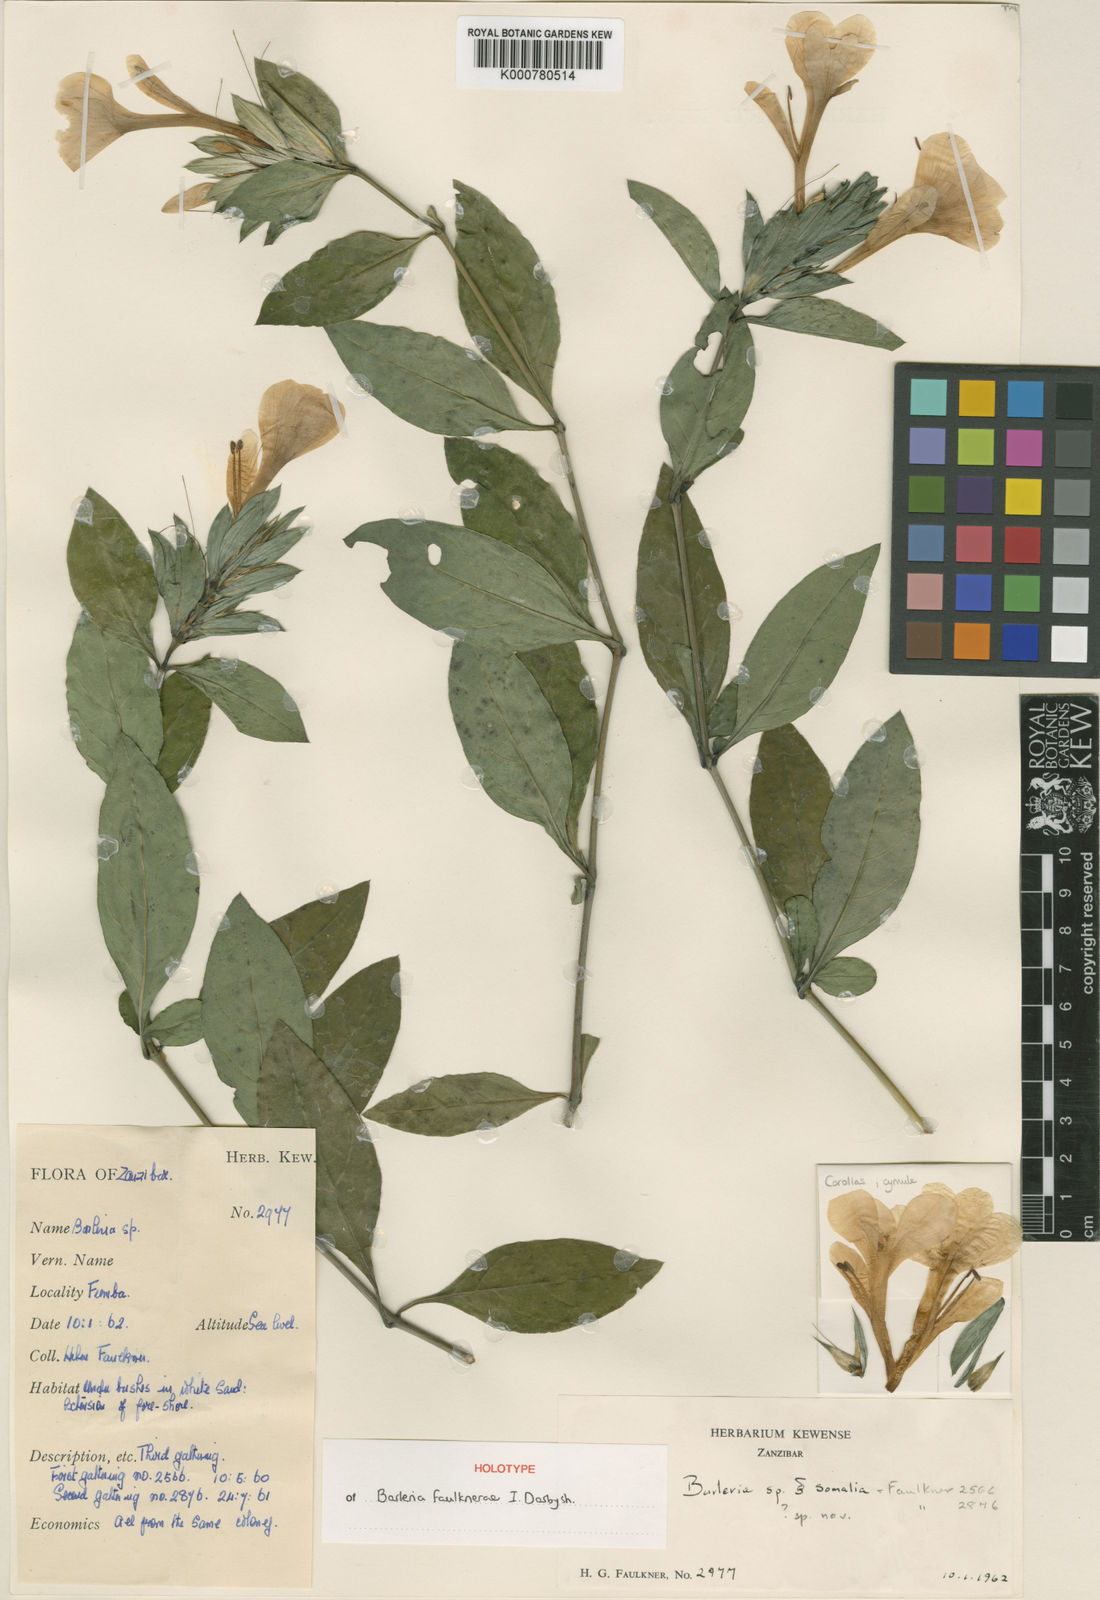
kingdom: Plantae
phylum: Tracheophyta
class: Magnoliopsida
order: Lamiales
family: Acanthaceae
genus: Barleria
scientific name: Barleria faulknerae
